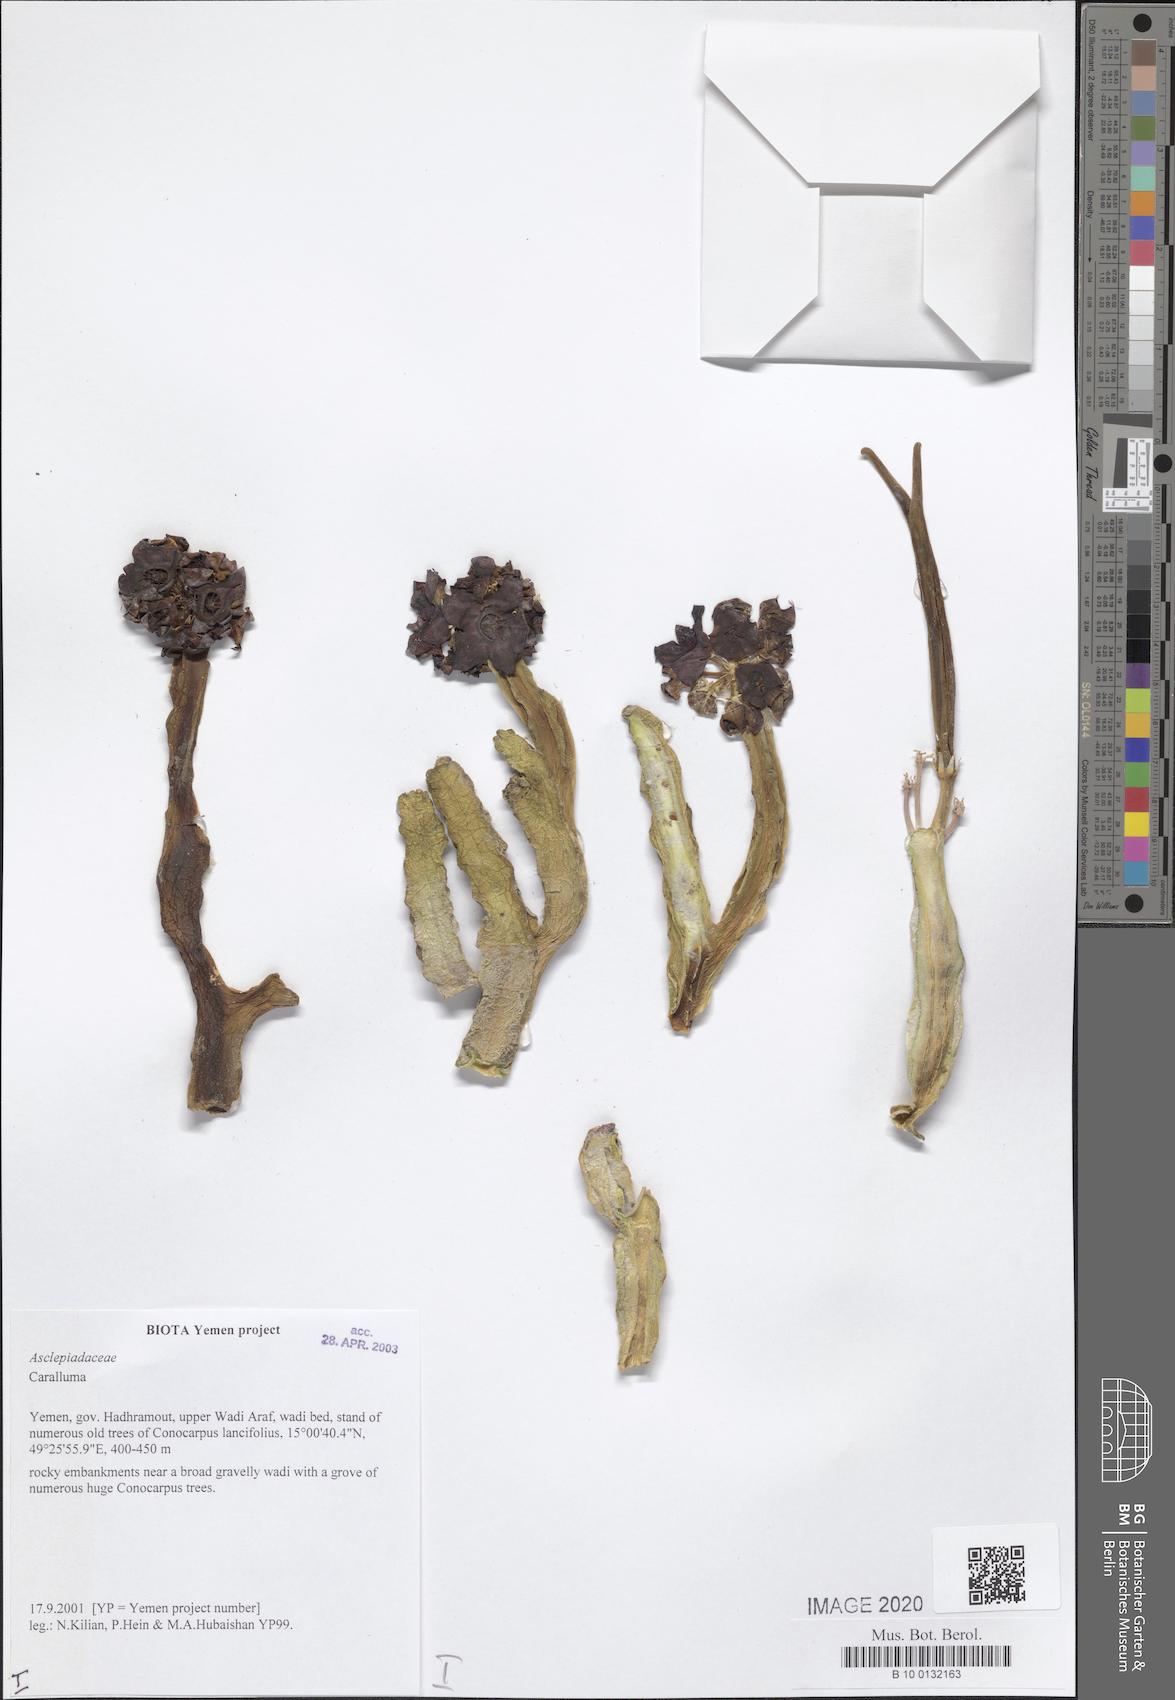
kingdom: Plantae
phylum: Tracheophyta
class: Magnoliopsida
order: Gentianales
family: Apocynaceae
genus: Ceropegia
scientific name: Ceropegia adenensis
